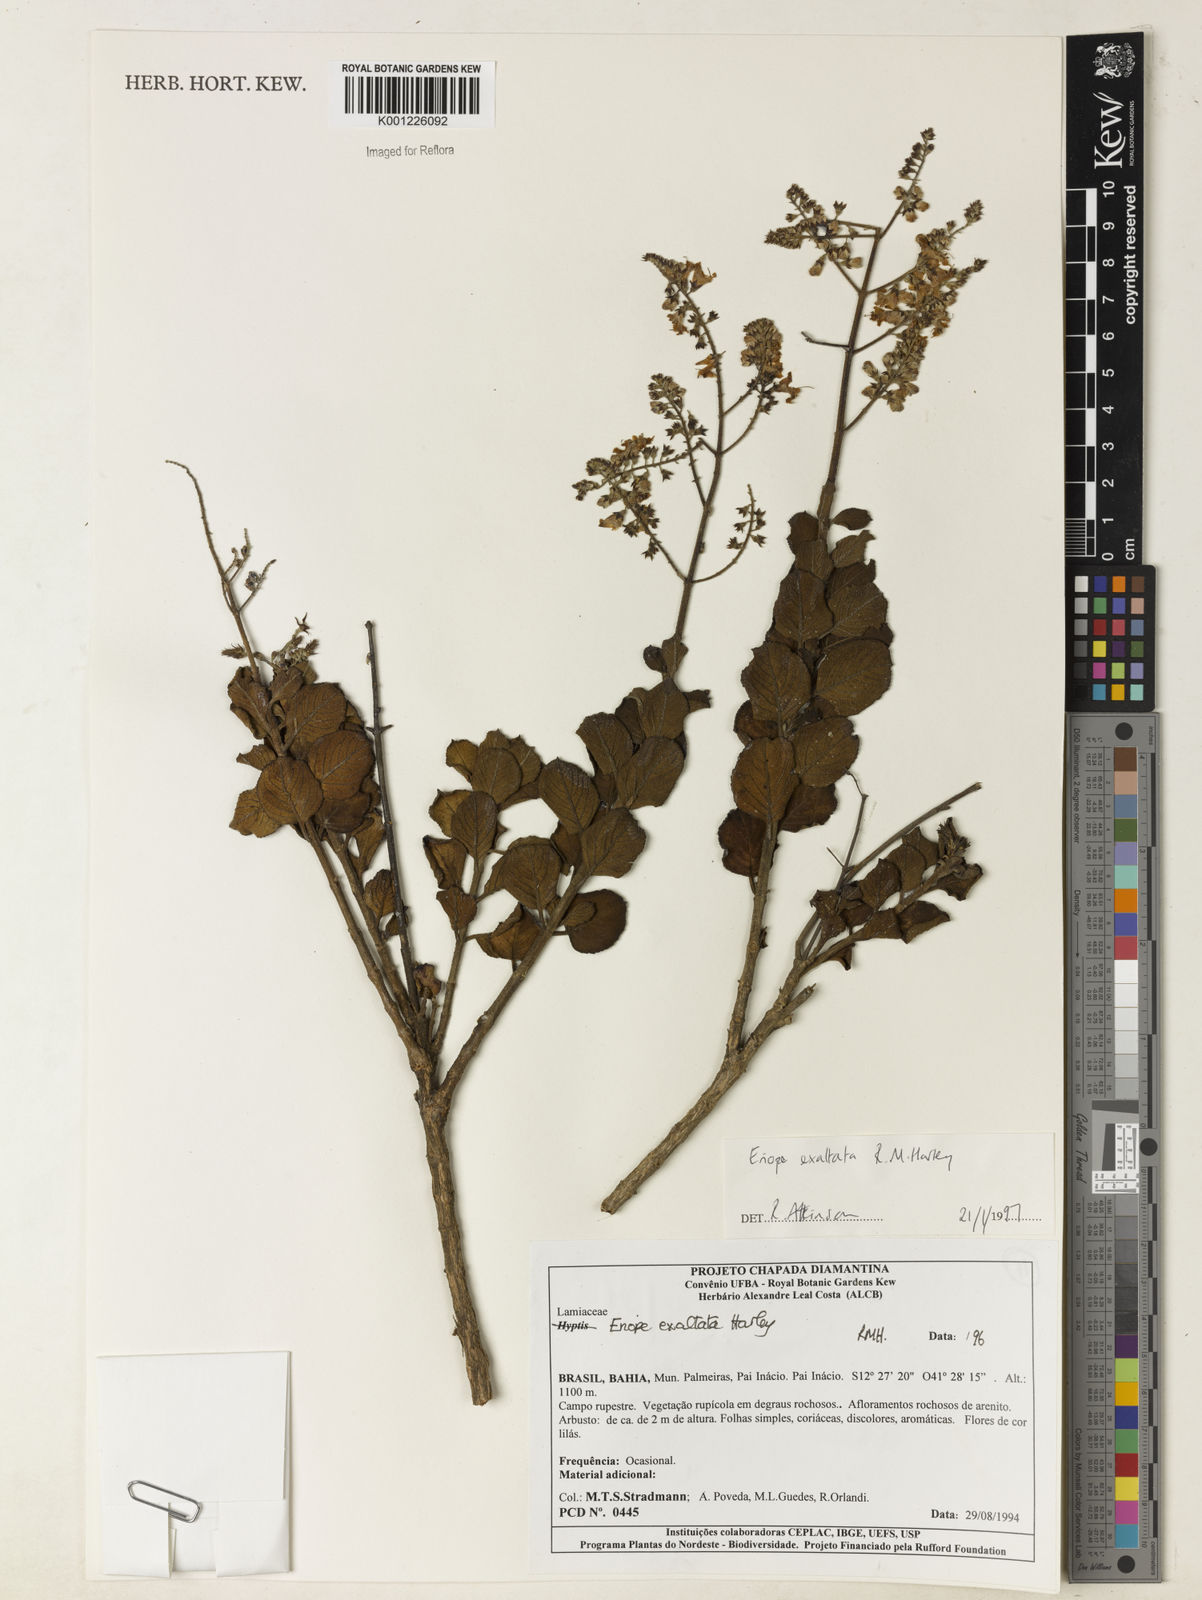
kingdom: Plantae
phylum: Tracheophyta
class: Magnoliopsida
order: Lamiales
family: Lamiaceae
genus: Eriope
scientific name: Eriope exaltata
